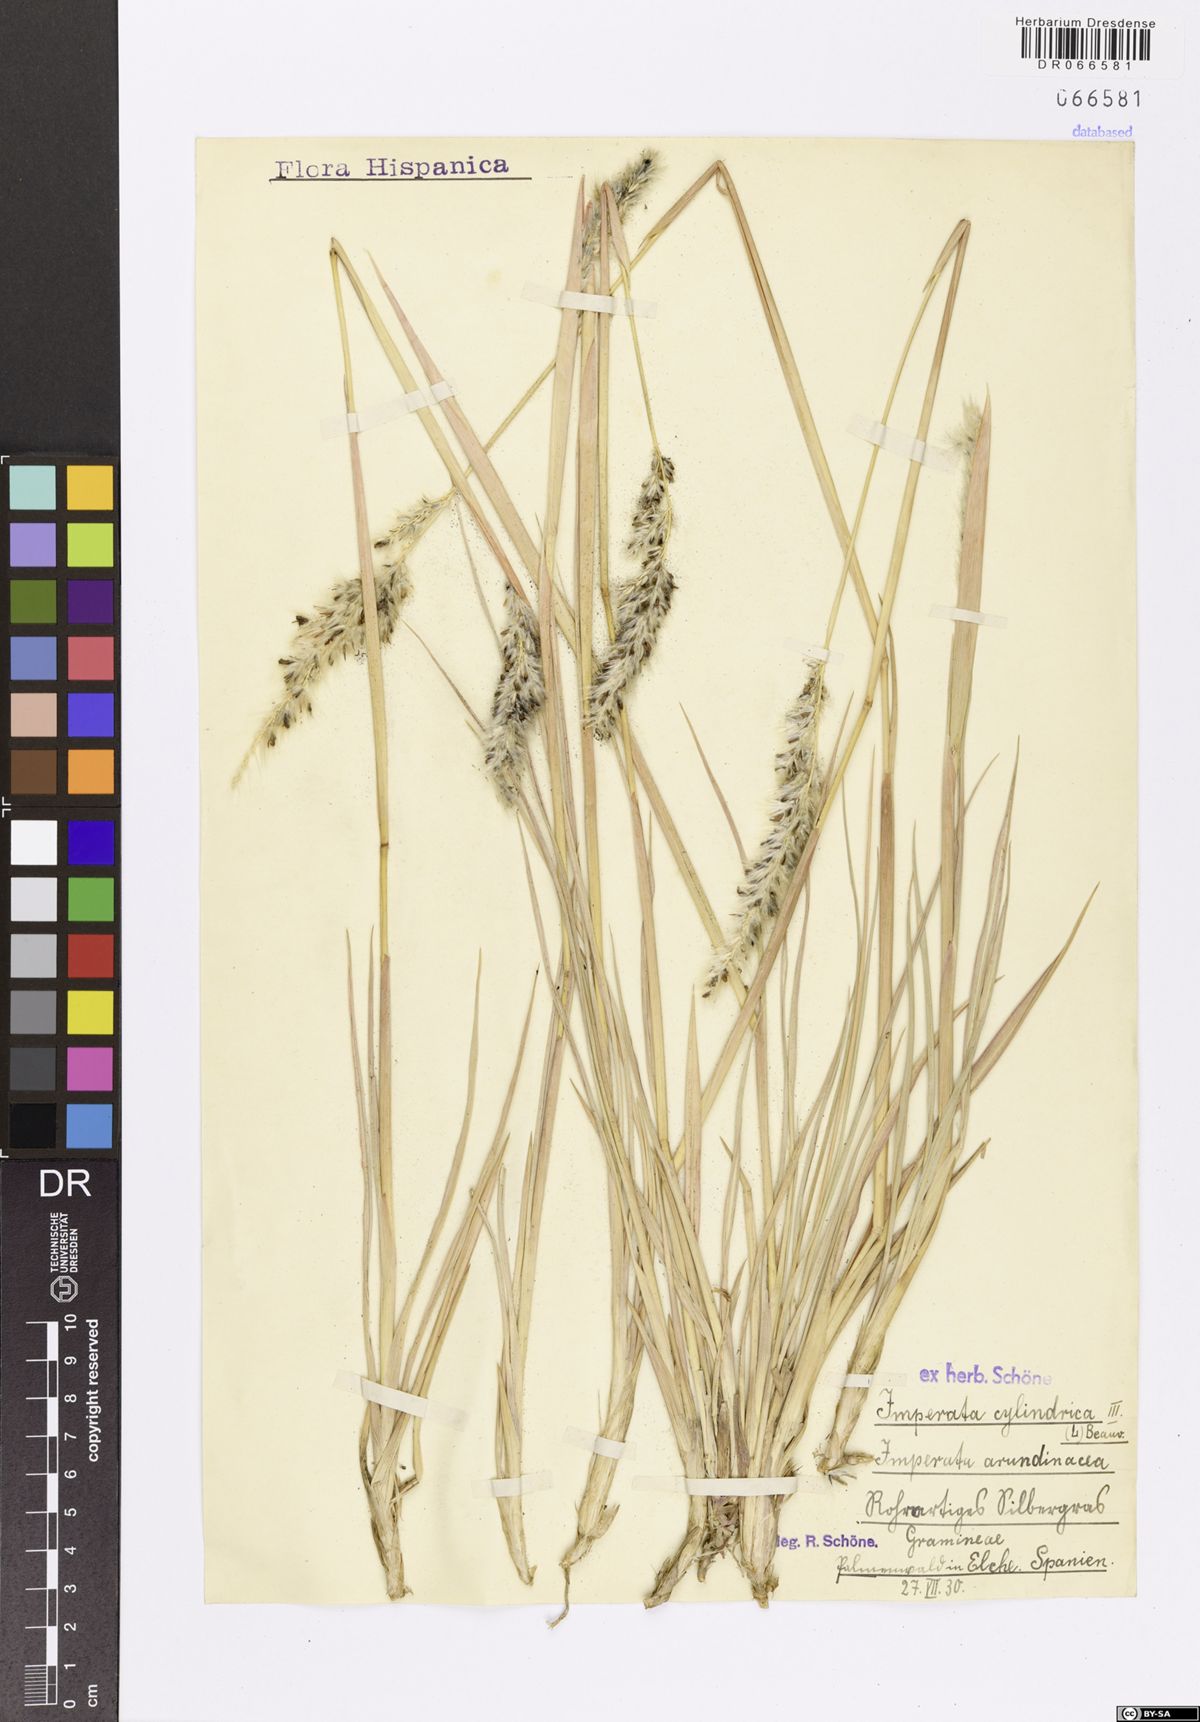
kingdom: Plantae
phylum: Tracheophyta
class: Liliopsida
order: Poales
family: Poaceae
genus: Imperata
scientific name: Imperata cylindrica
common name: Cogongrass
